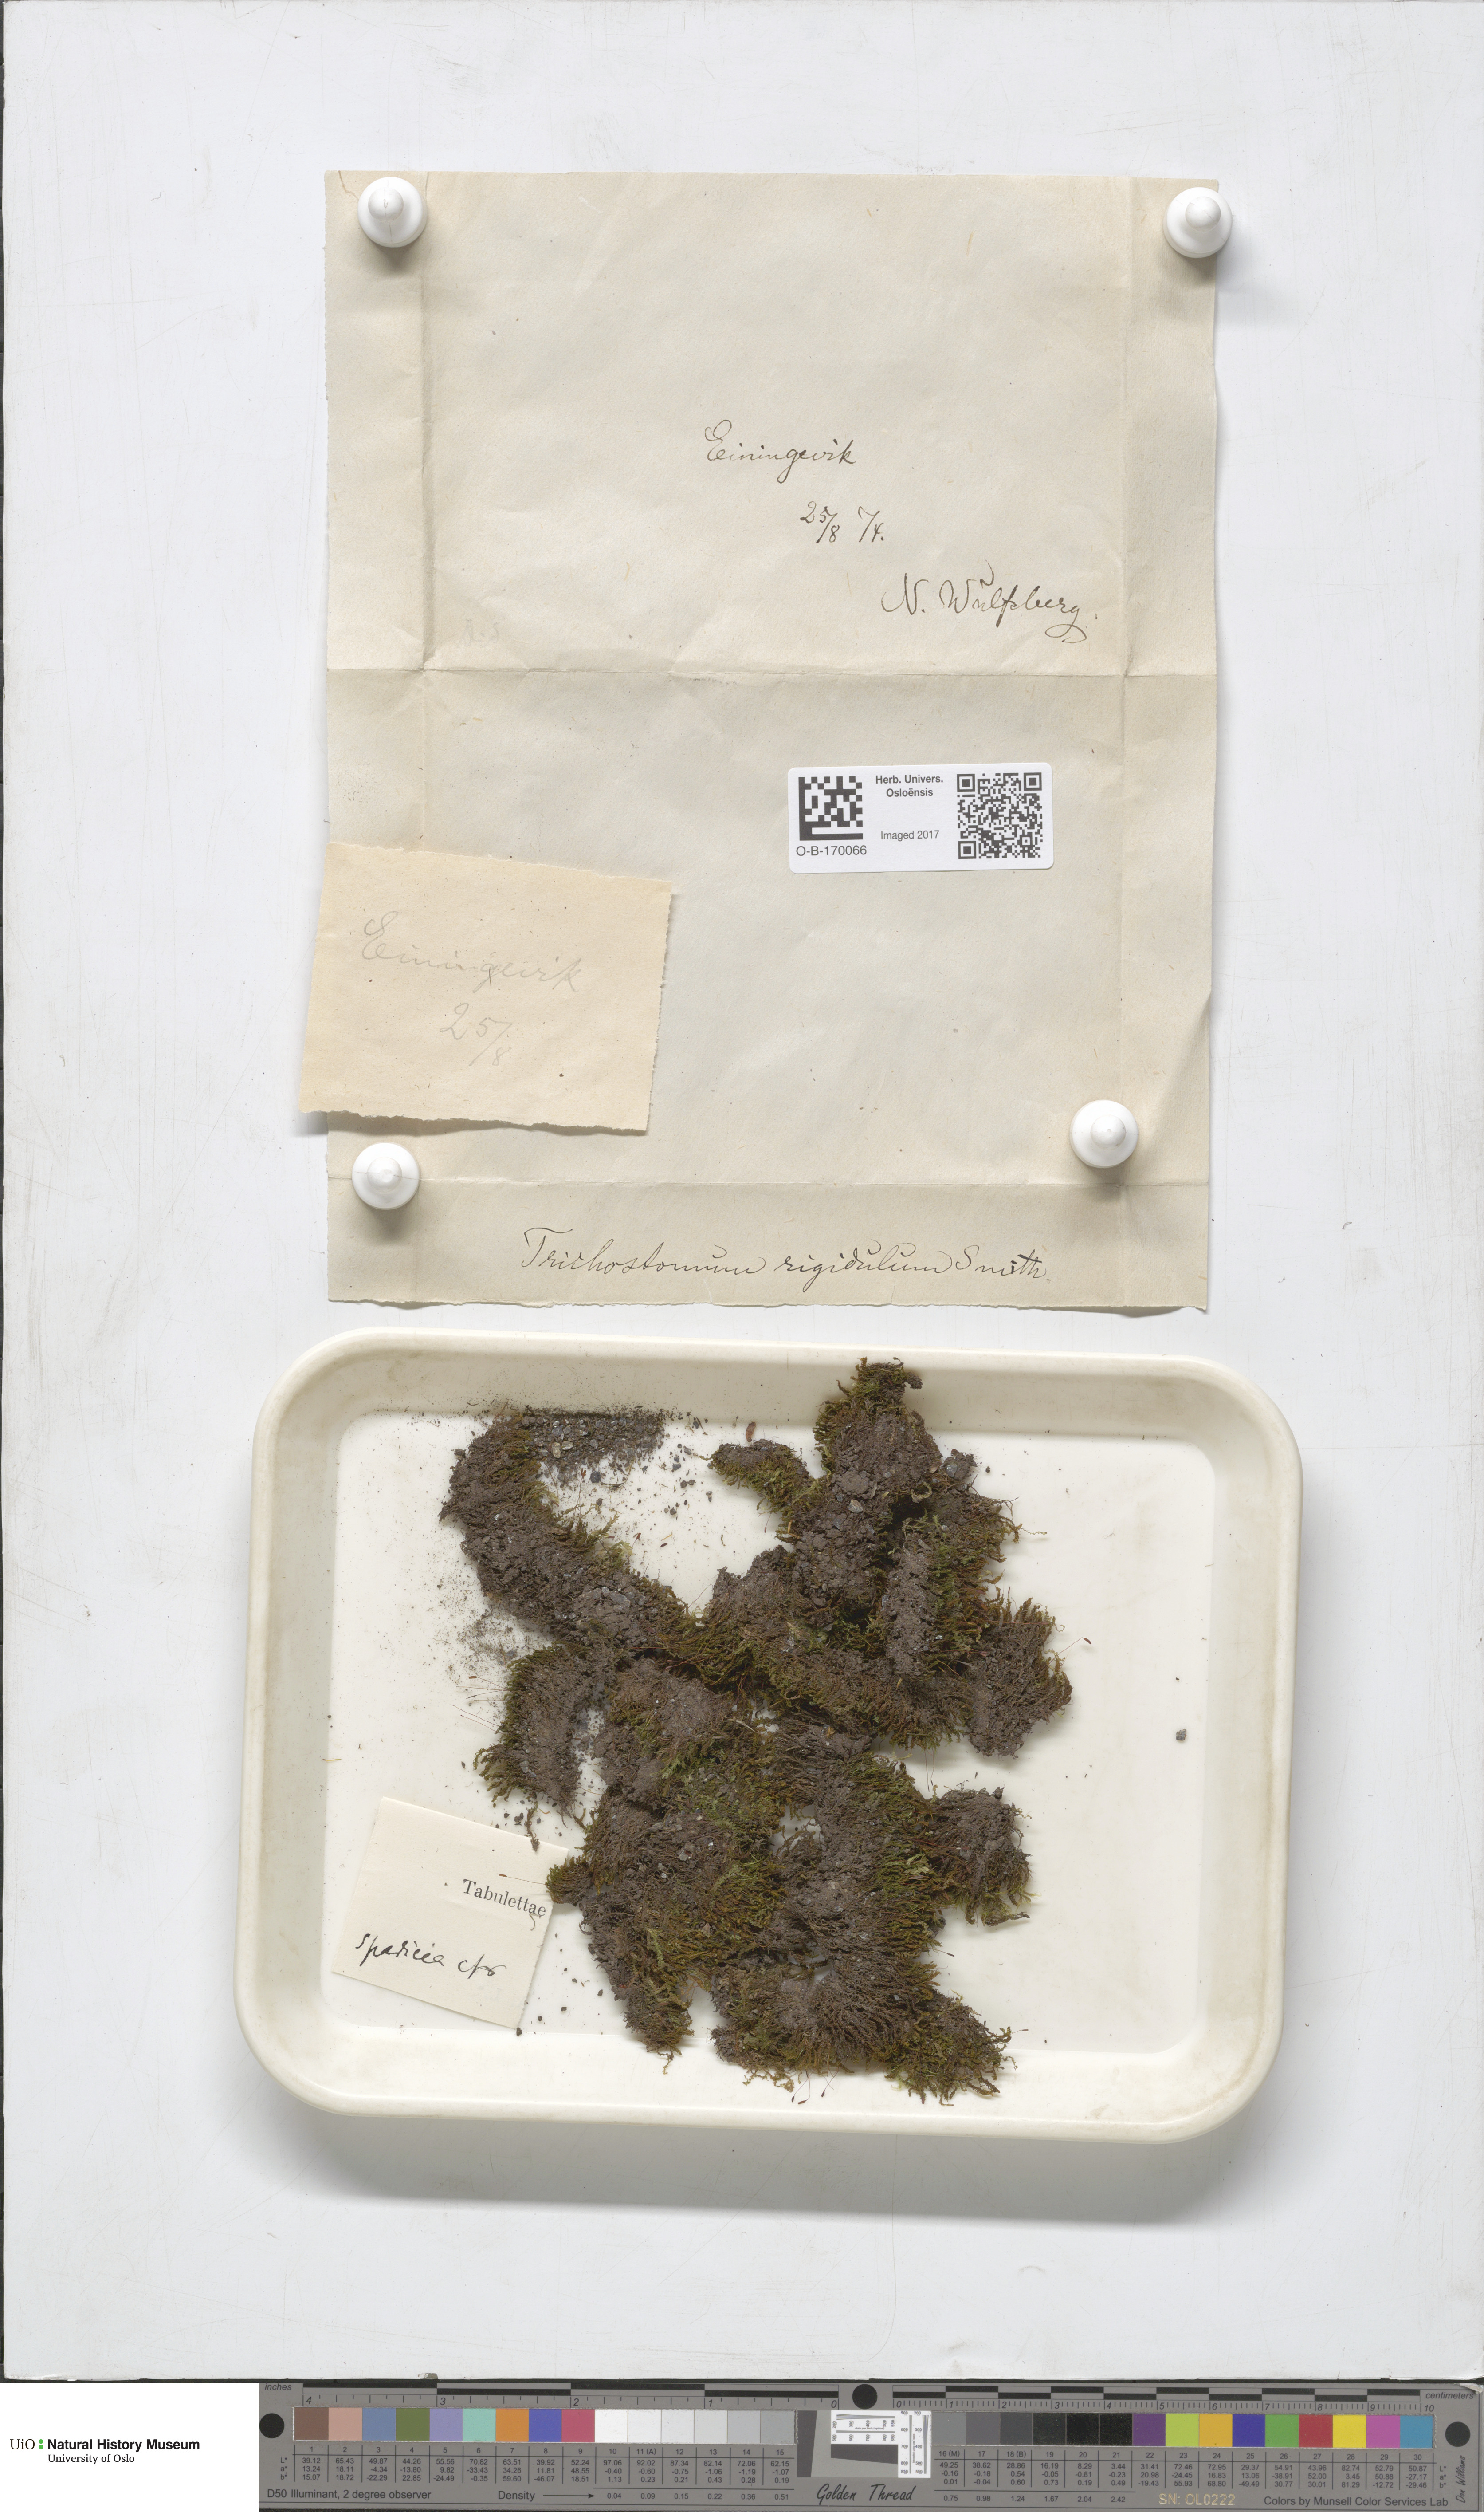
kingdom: Plantae
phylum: Bryophyta
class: Bryopsida
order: Pottiales
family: Pottiaceae
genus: Geheebia
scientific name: Geheebia spadicea
